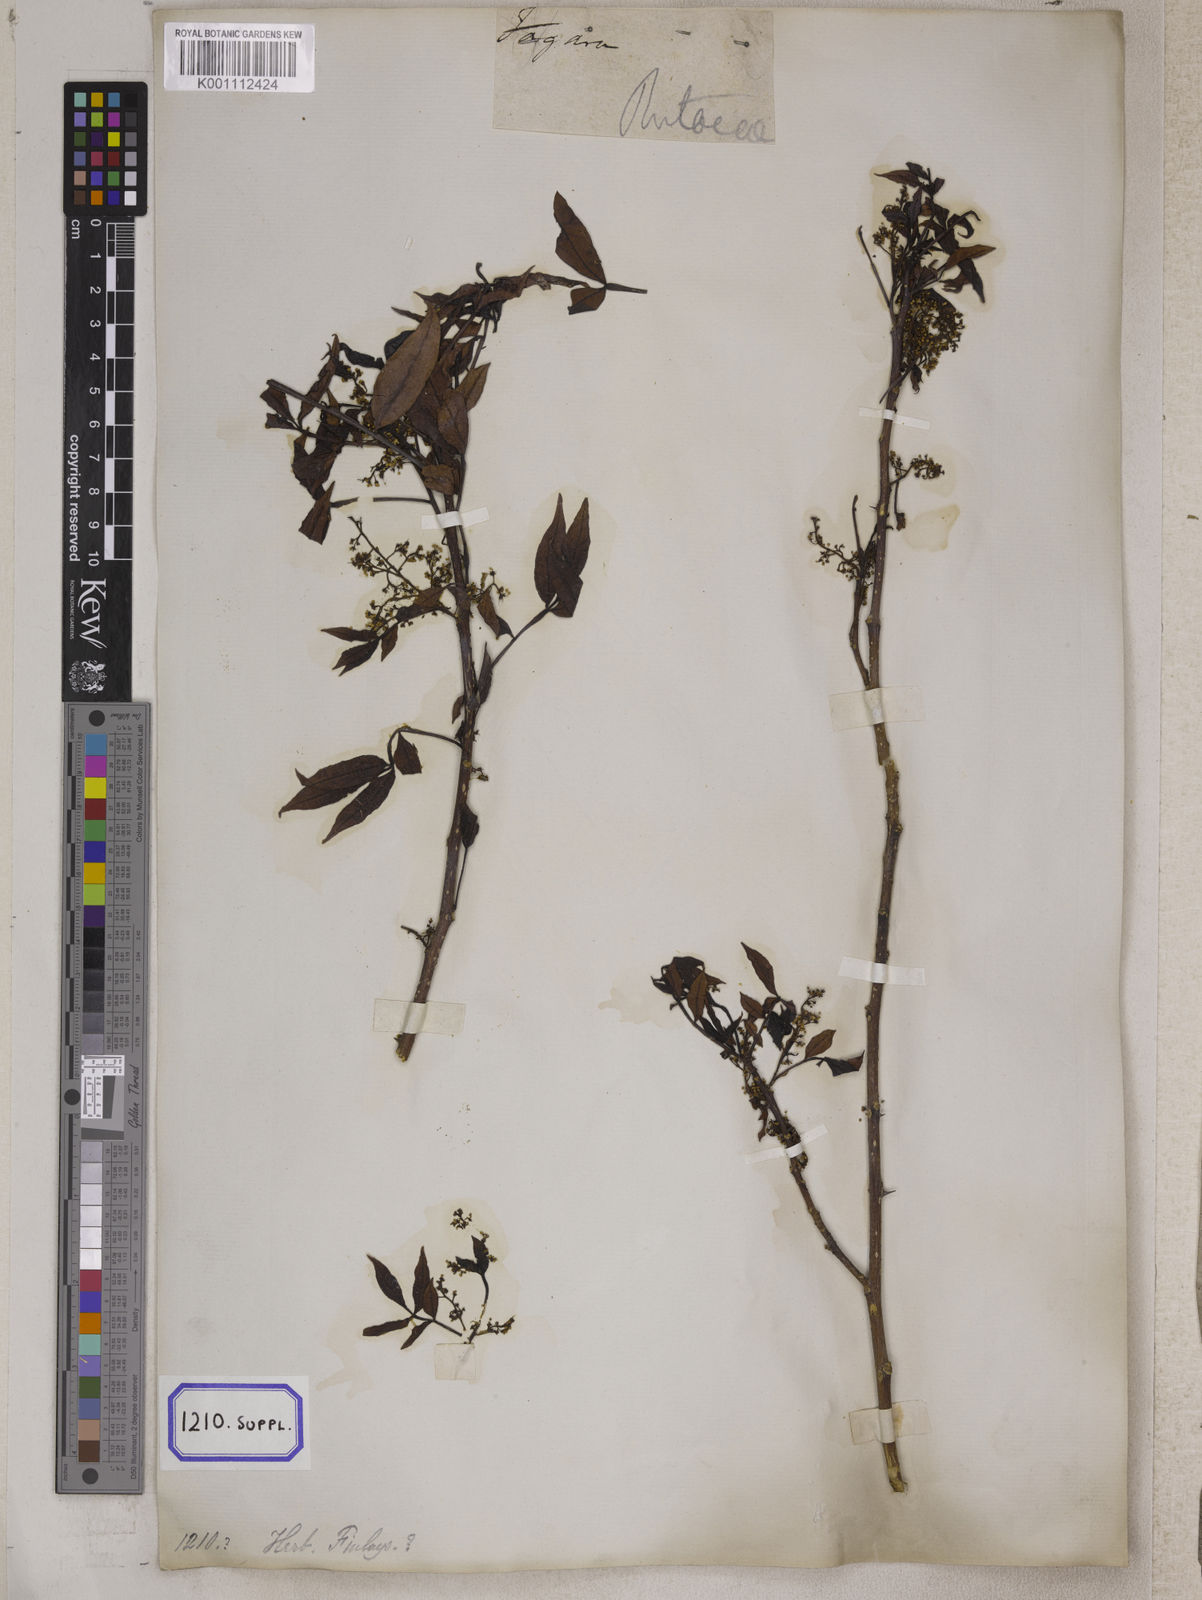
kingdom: Plantae
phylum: Tracheophyta
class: Magnoliopsida
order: Sapindales
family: Rutaceae
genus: Zanthoxylum
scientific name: Zanthoxylum armatum
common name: Winged prickly-ash
